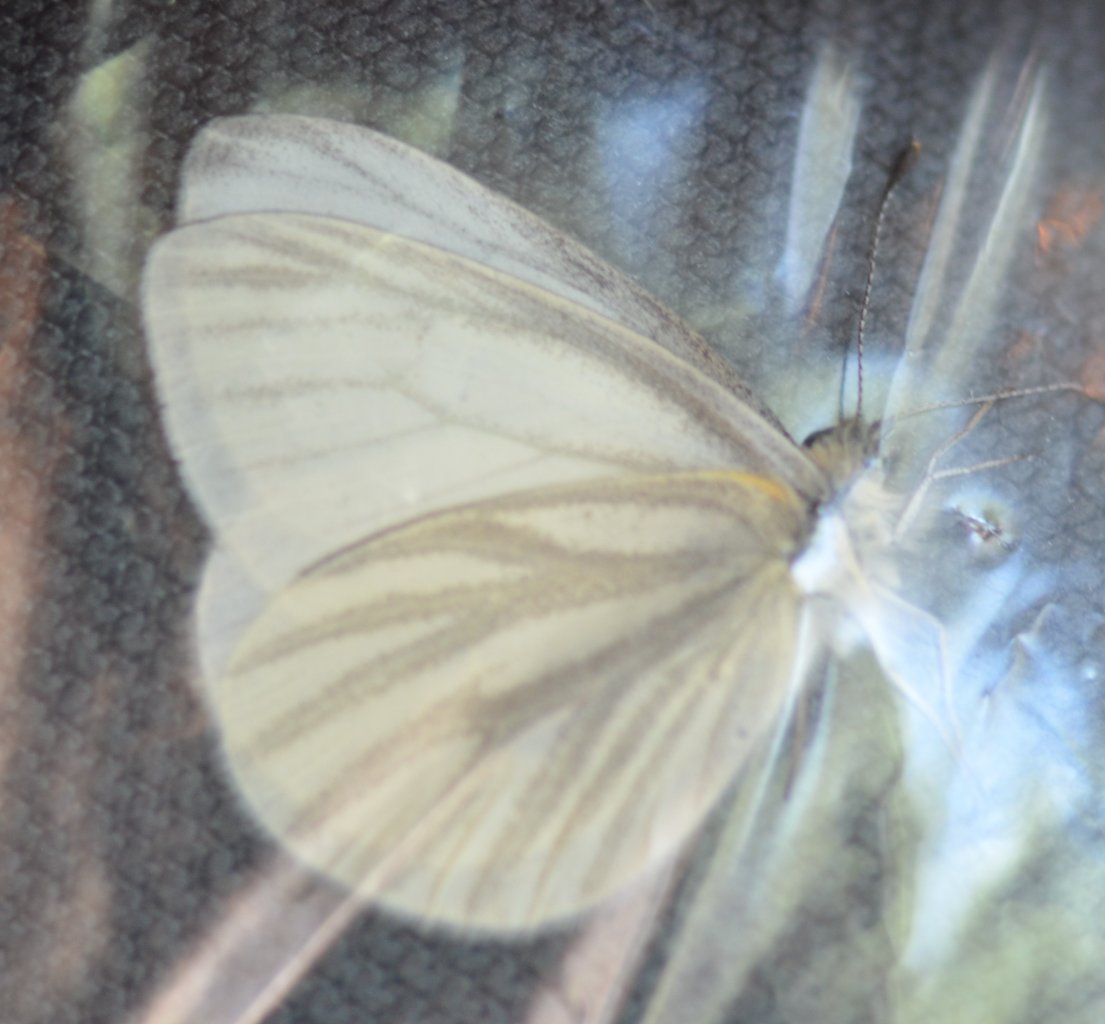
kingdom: Animalia
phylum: Arthropoda
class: Insecta
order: Lepidoptera
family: Pieridae
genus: Pieris
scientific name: Pieris virginiensis
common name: West Virginia White
